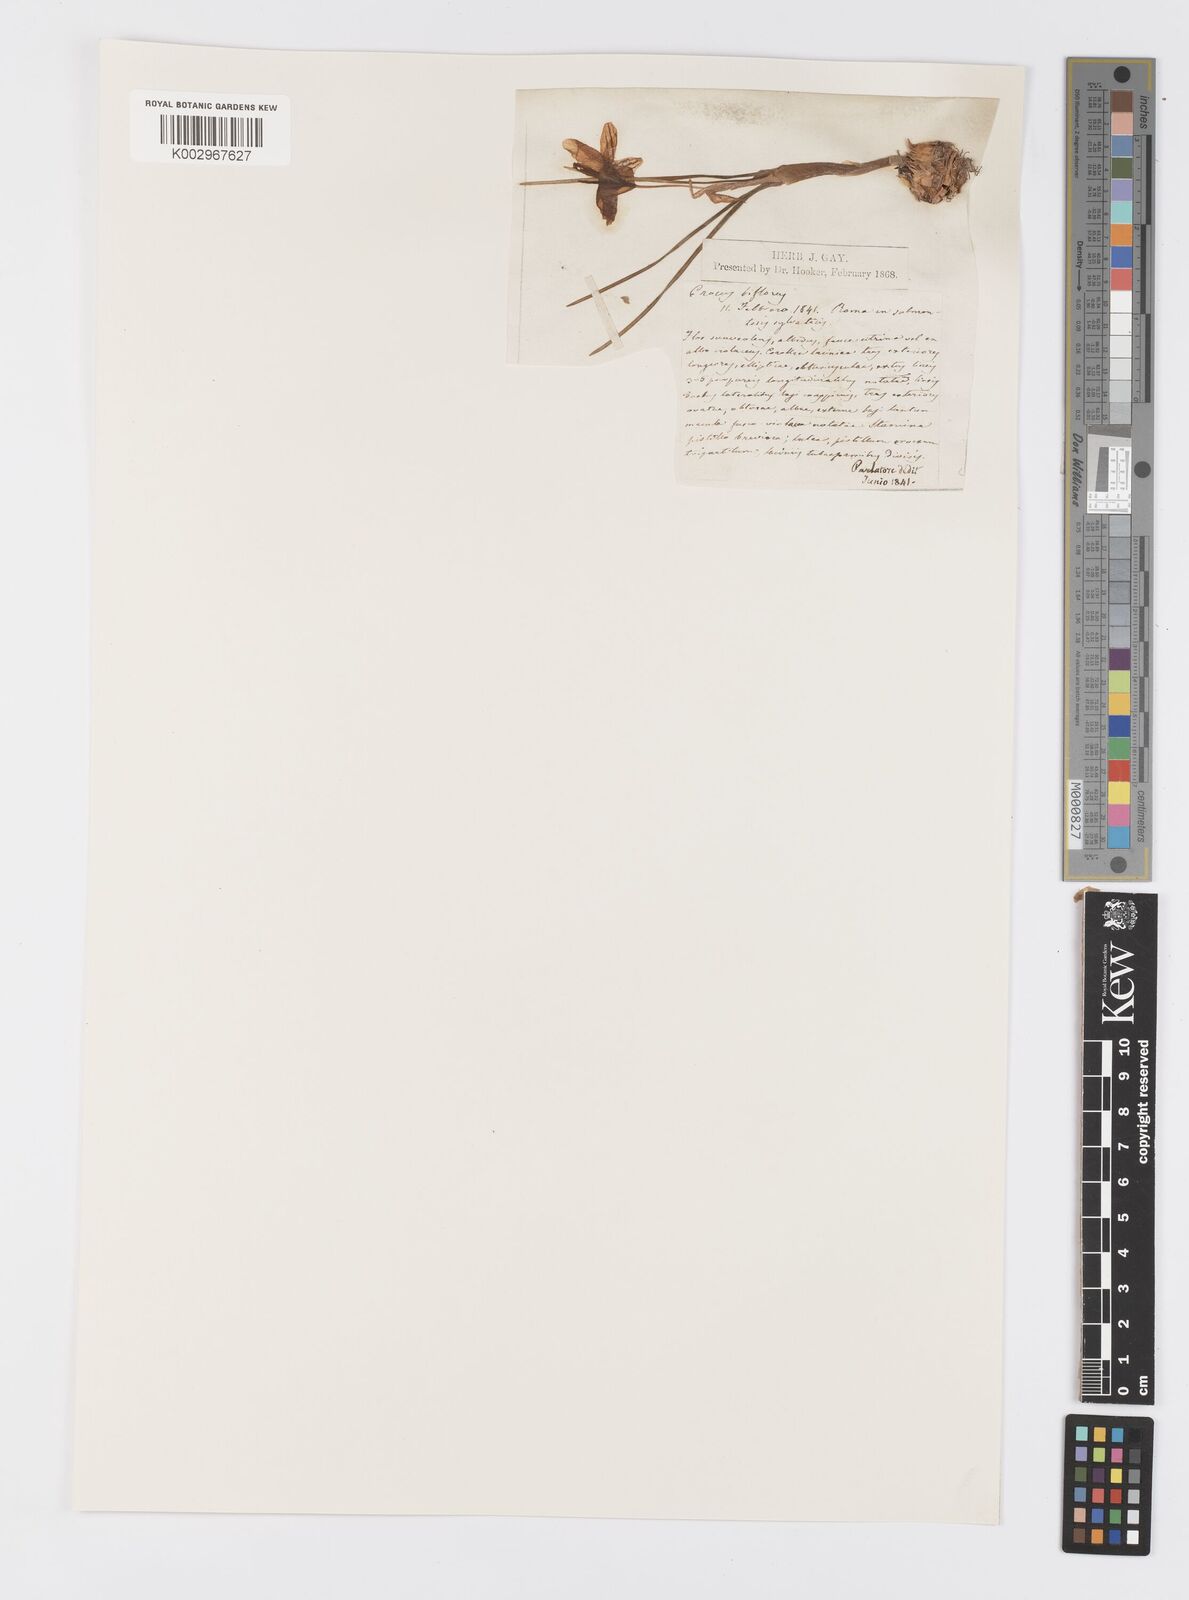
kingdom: Plantae
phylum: Tracheophyta
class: Liliopsida
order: Asparagales
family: Iridaceae
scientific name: Iridaceae
